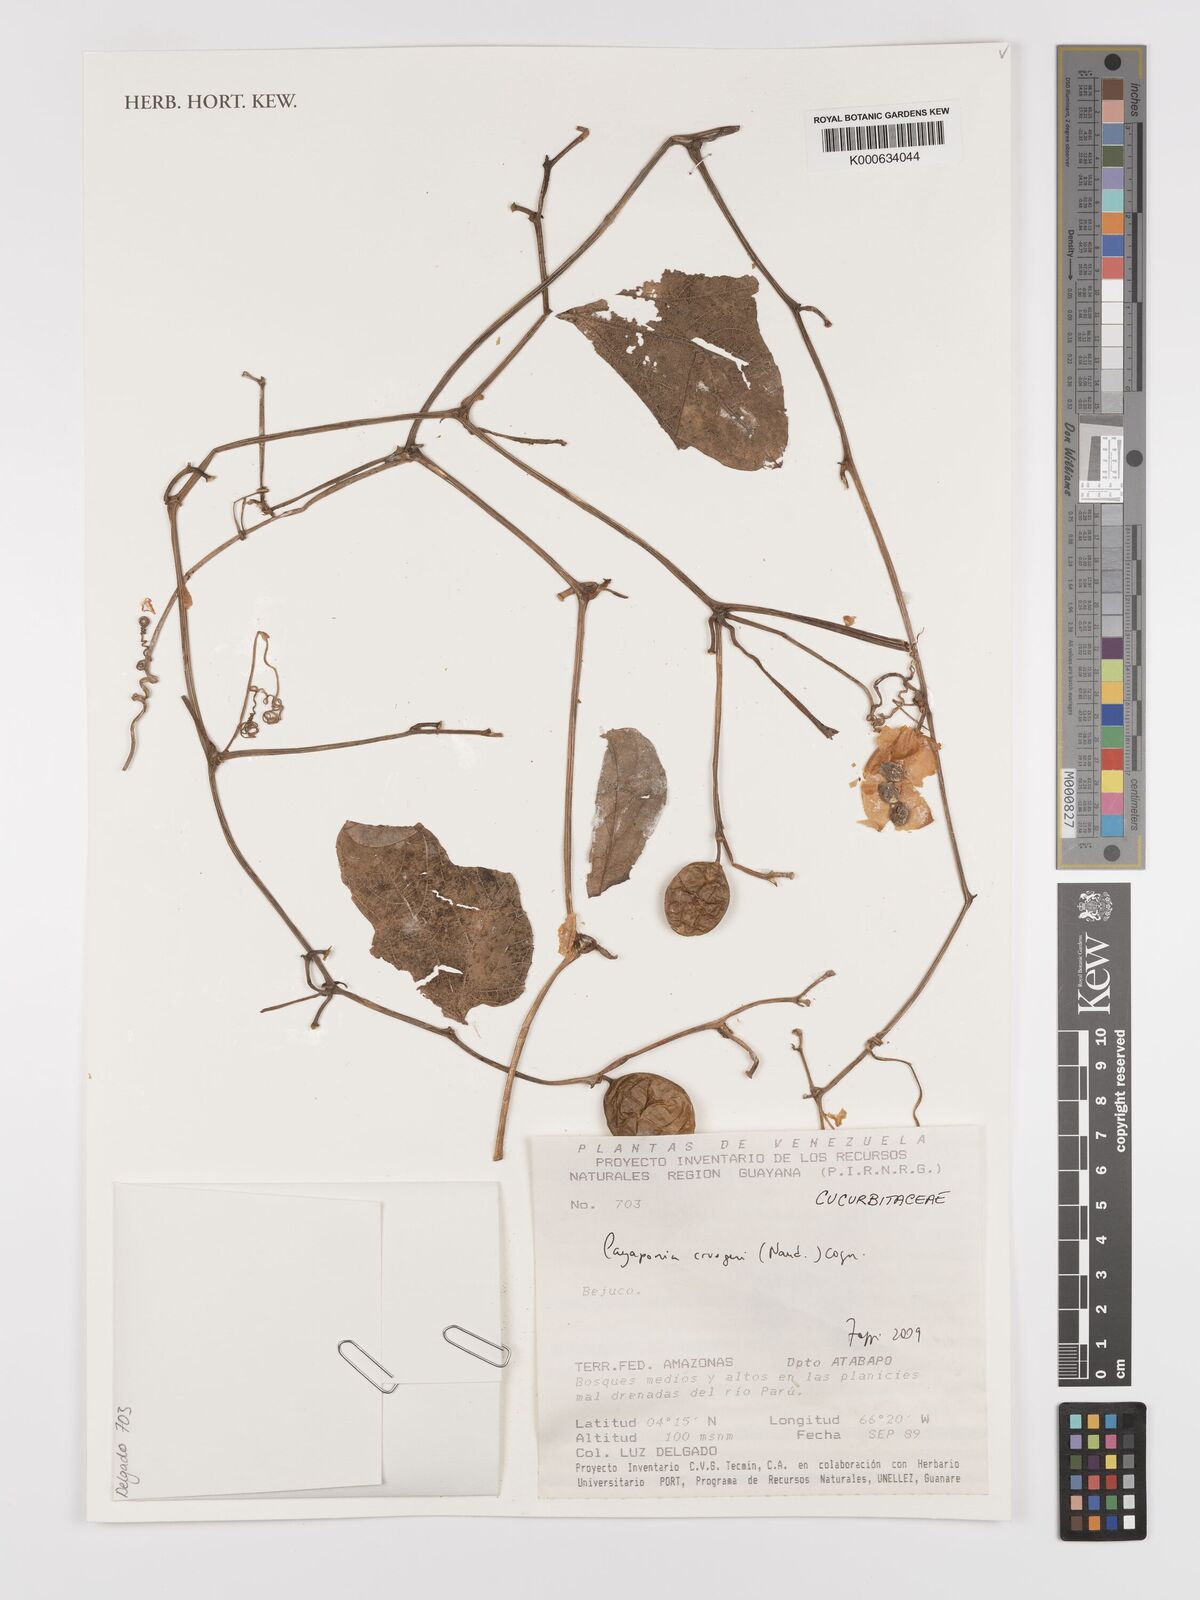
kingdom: Plantae
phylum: Tracheophyta
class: Magnoliopsida
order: Cucurbitales
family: Cucurbitaceae
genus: Cayaponia
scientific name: Cayaponia cruegeri
